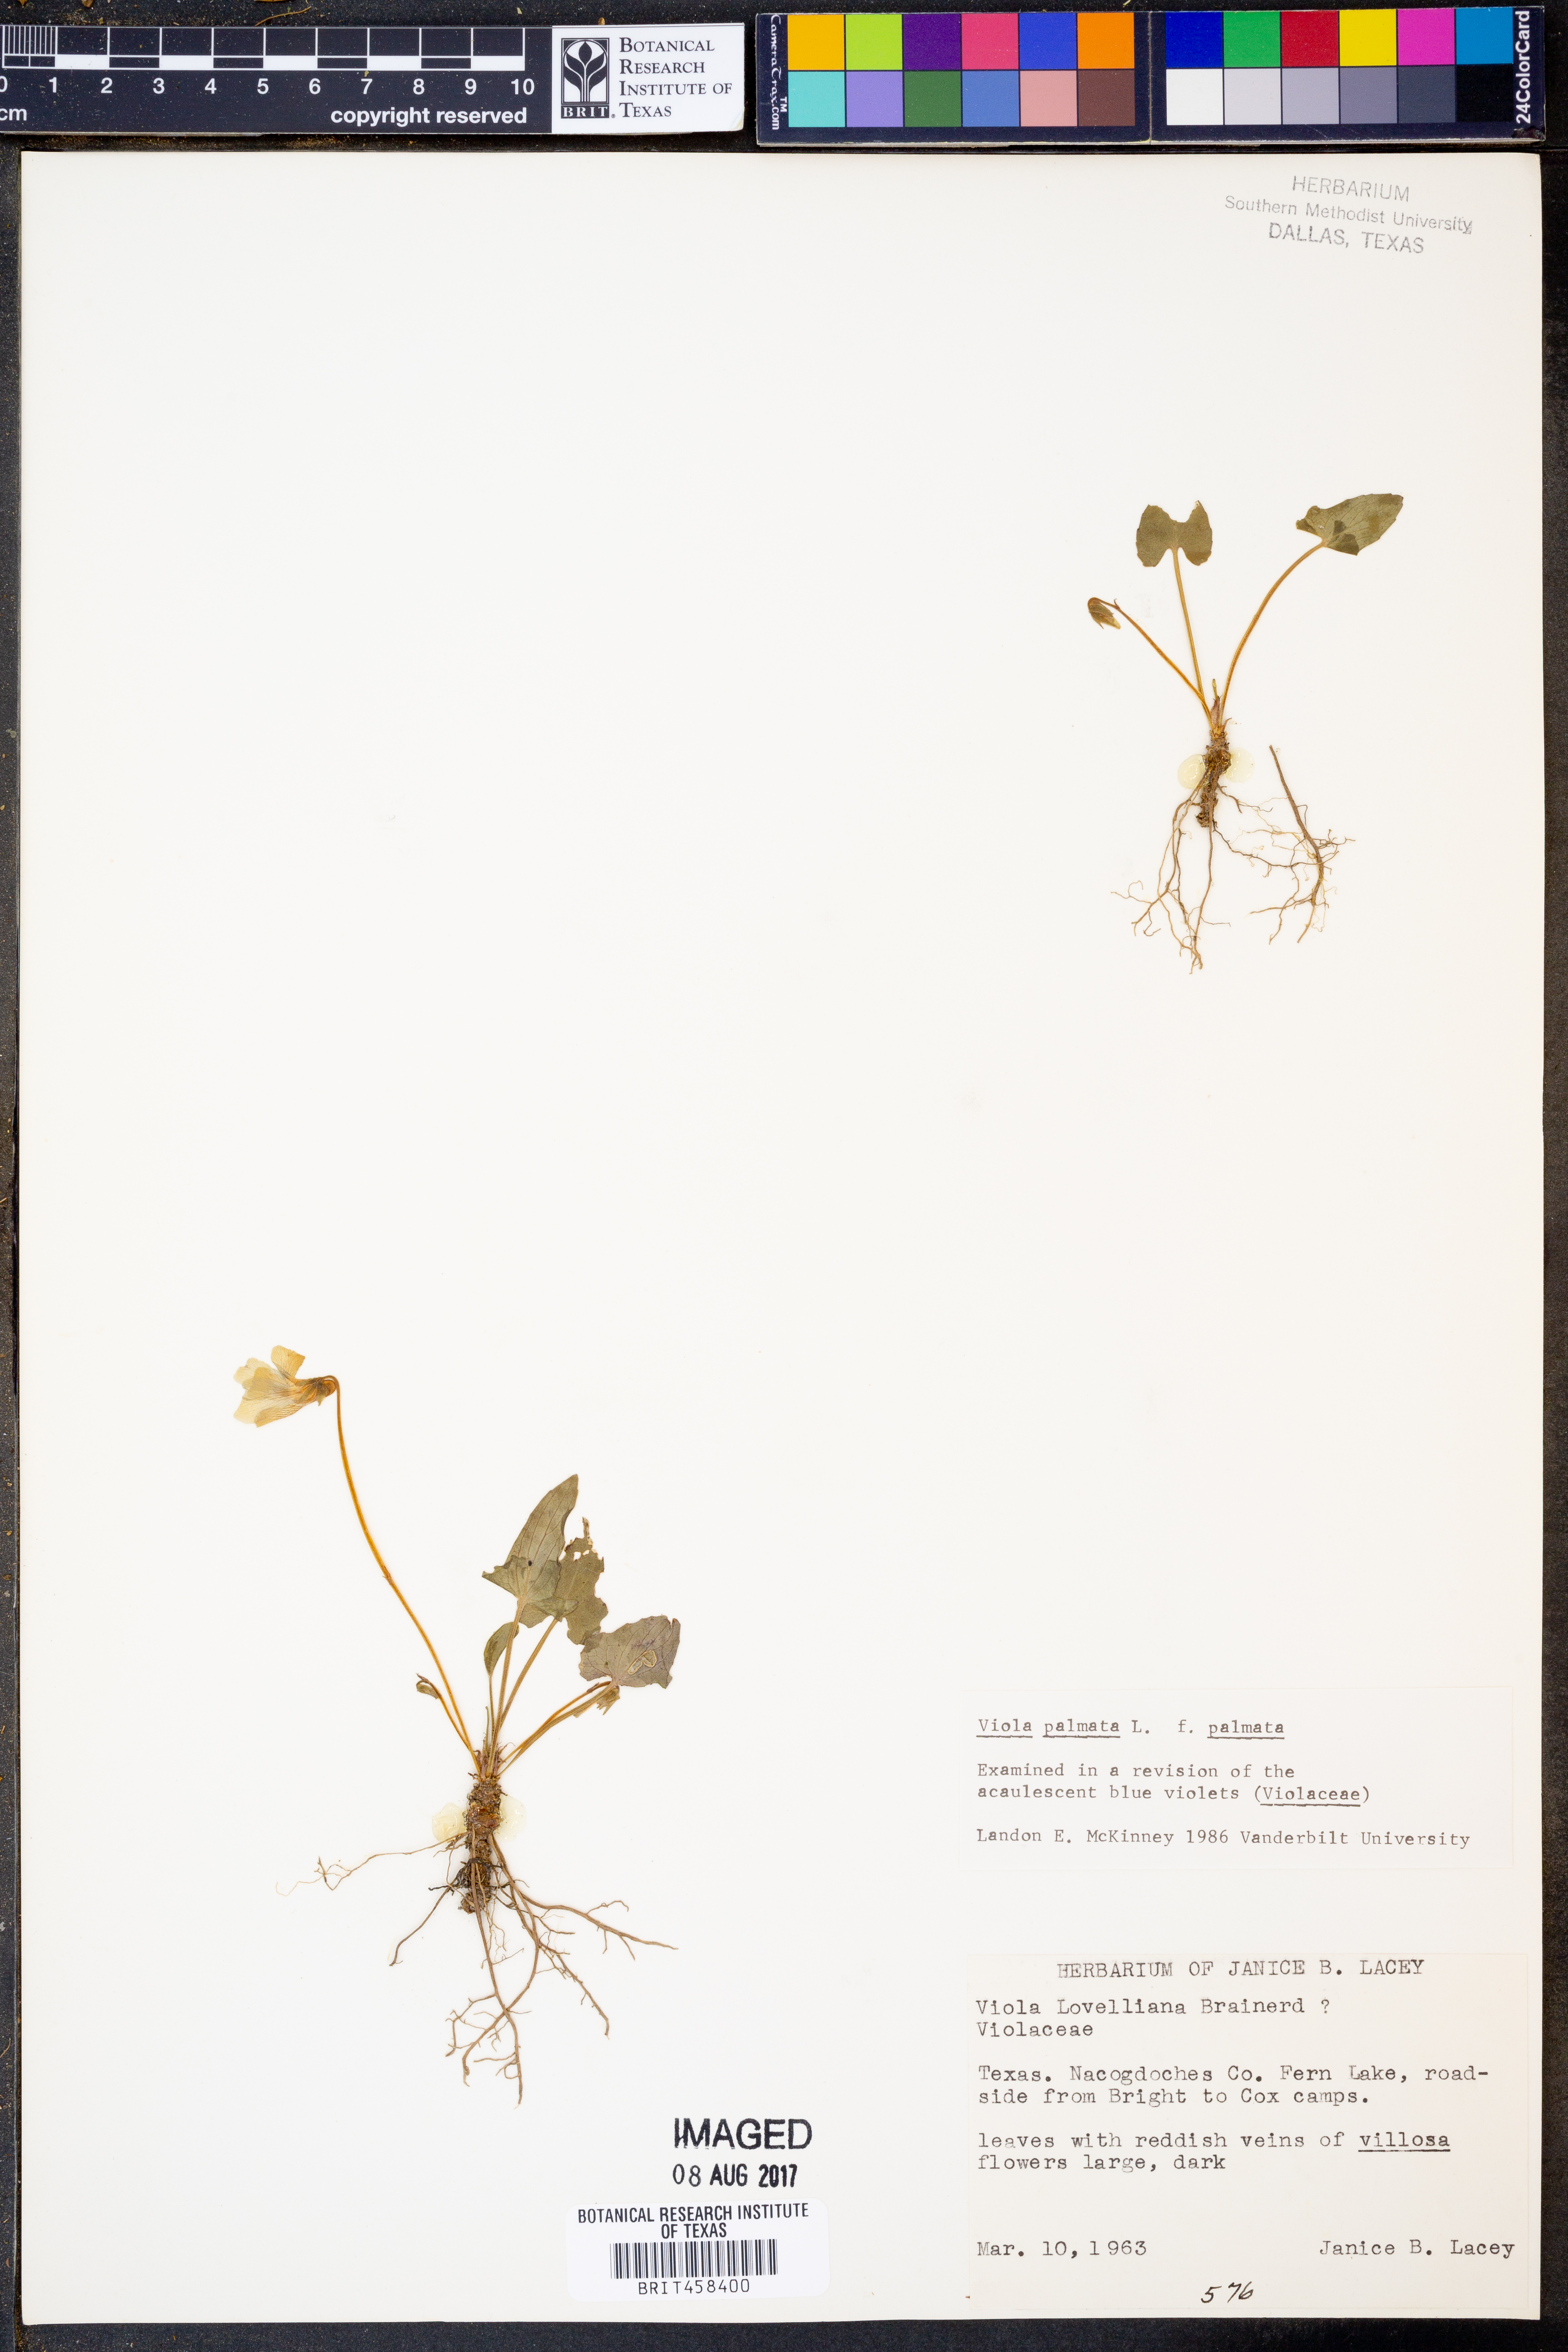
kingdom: Plantae
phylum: Tracheophyta
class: Magnoliopsida
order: Malpighiales
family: Violaceae
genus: Viola
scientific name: Viola palmata
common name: Early blue violet
